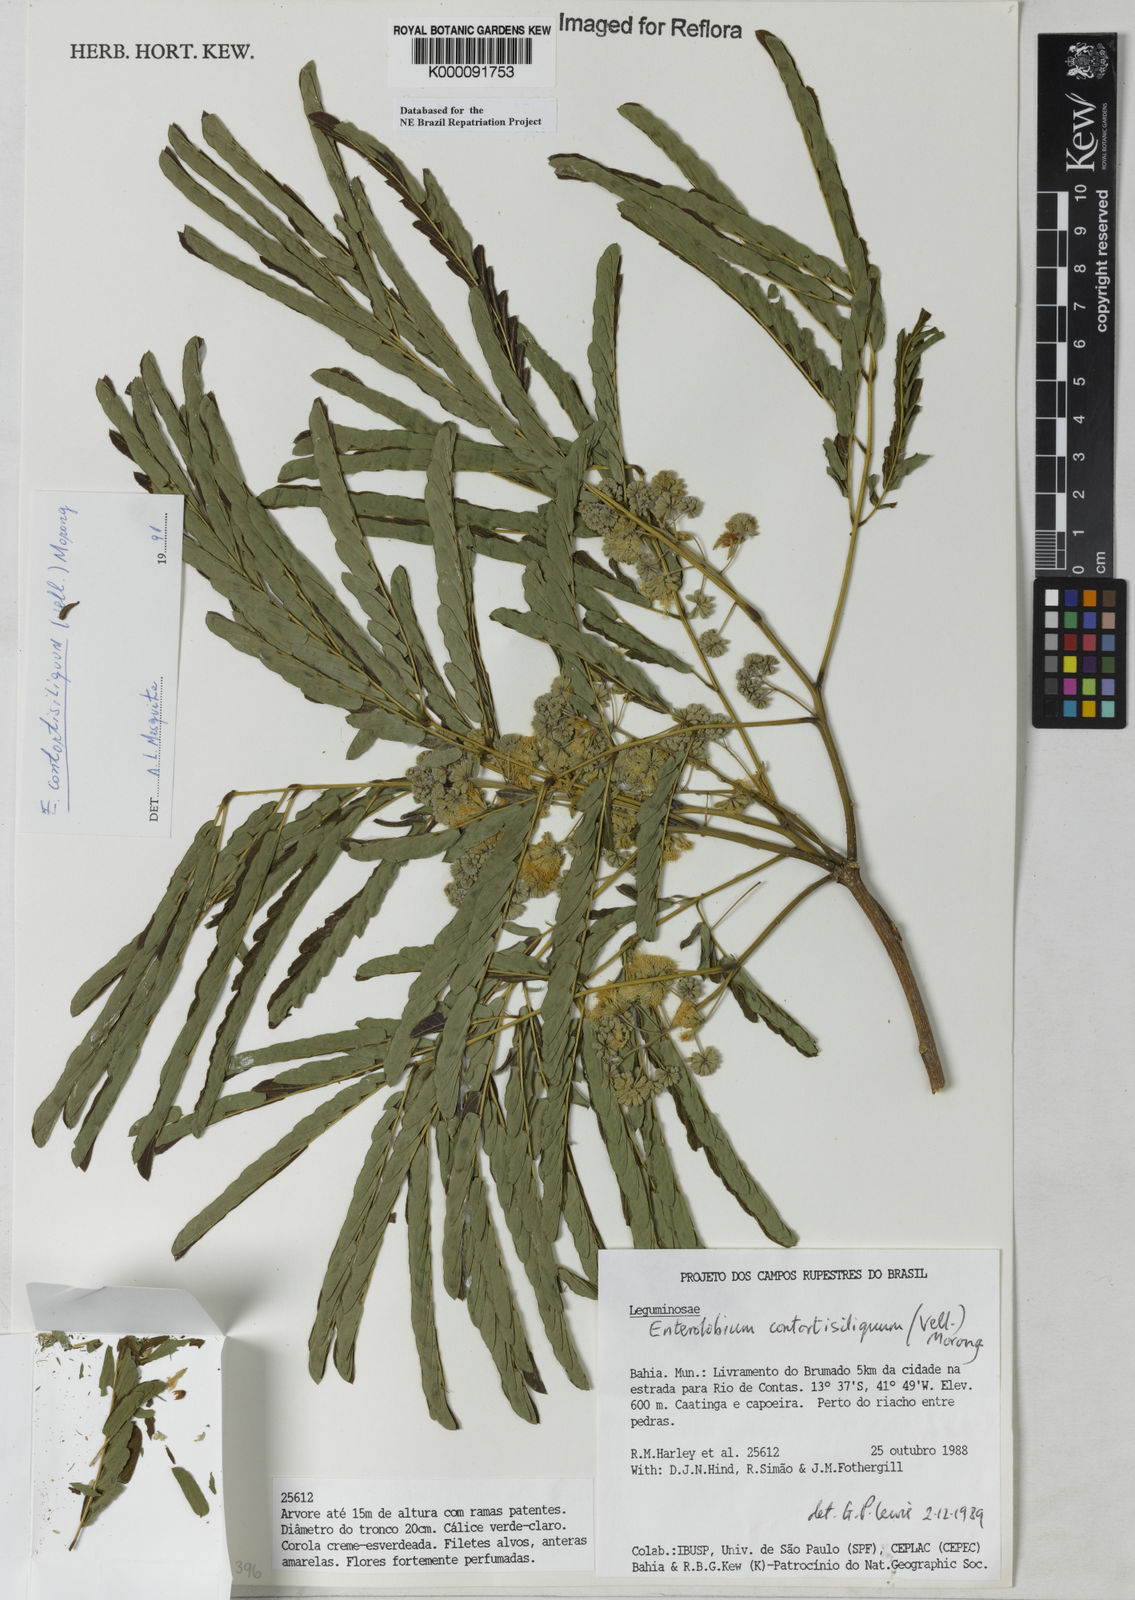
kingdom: Plantae
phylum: Tracheophyta
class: Magnoliopsida
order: Fabales
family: Fabaceae
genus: Enterolobium
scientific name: Enterolobium contortisiliquum
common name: Pacara earpod tree
